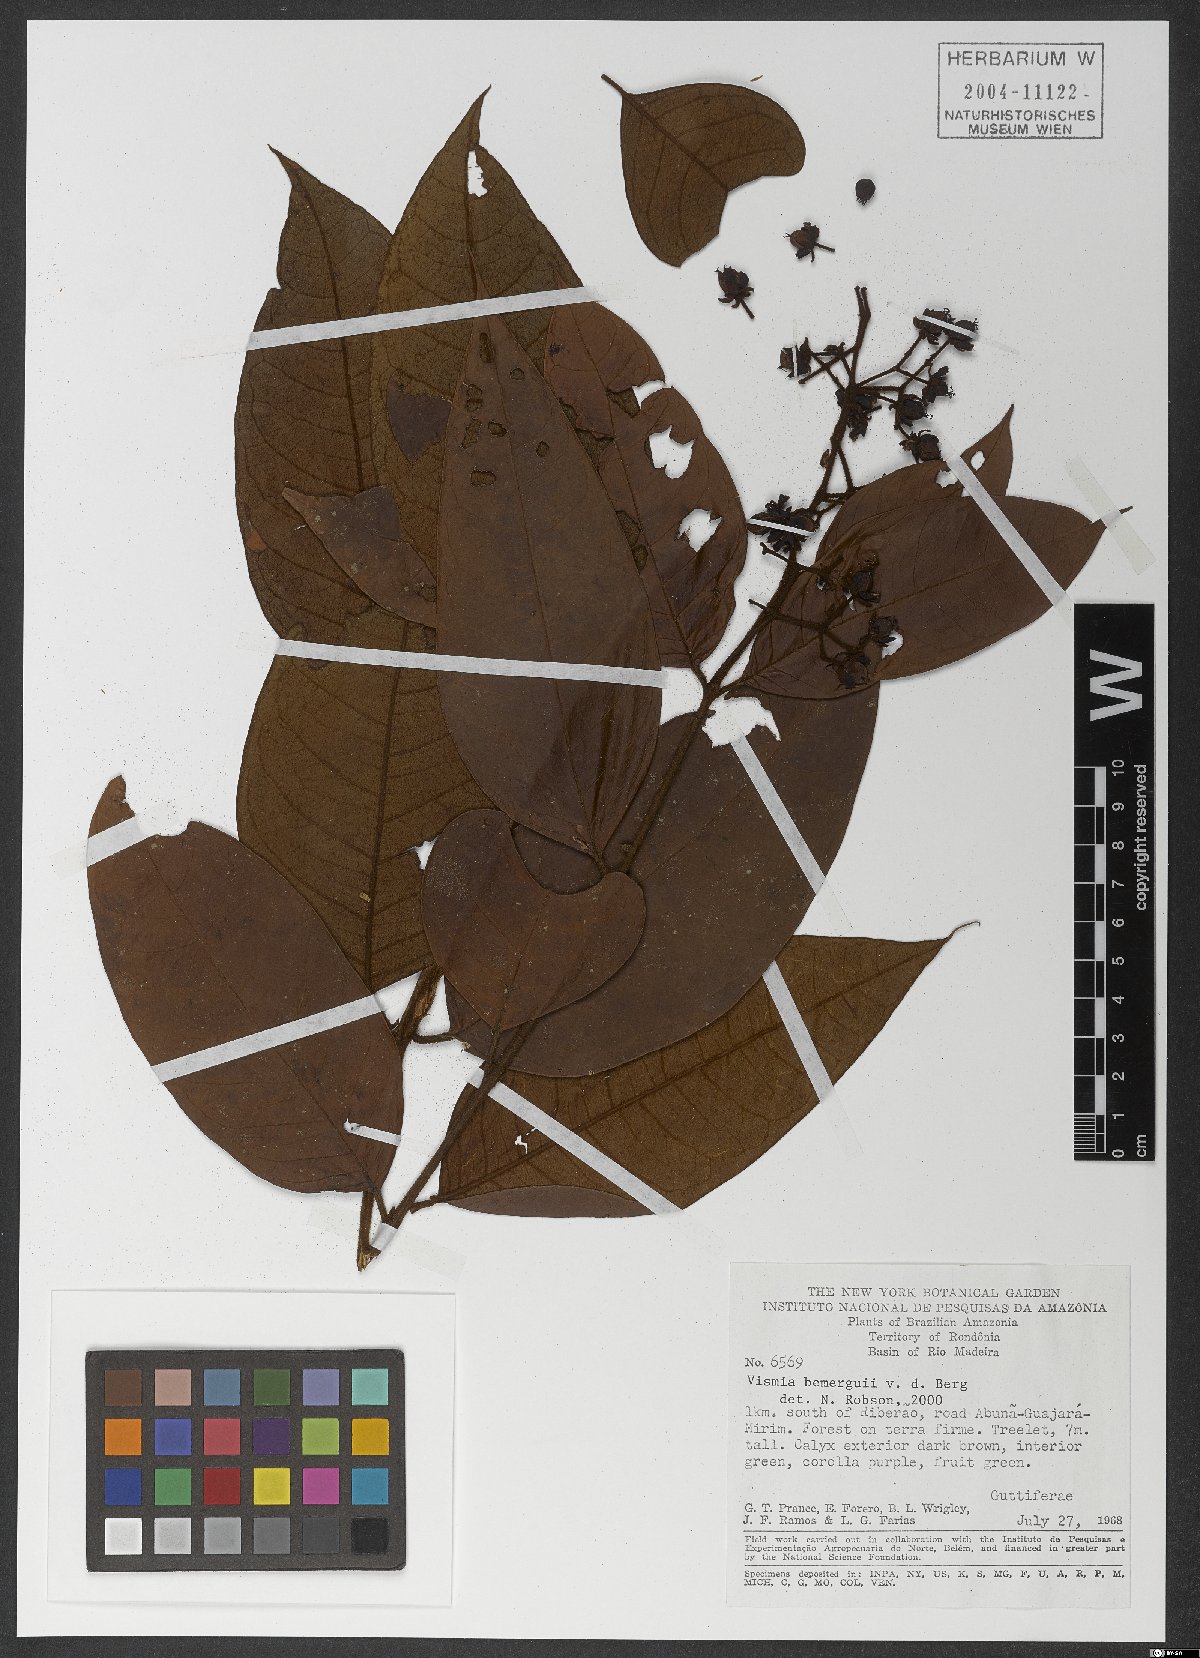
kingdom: Plantae
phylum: Tracheophyta
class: Magnoliopsida
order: Malpighiales
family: Hypericaceae
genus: Vismia
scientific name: Vismia bemerguii
